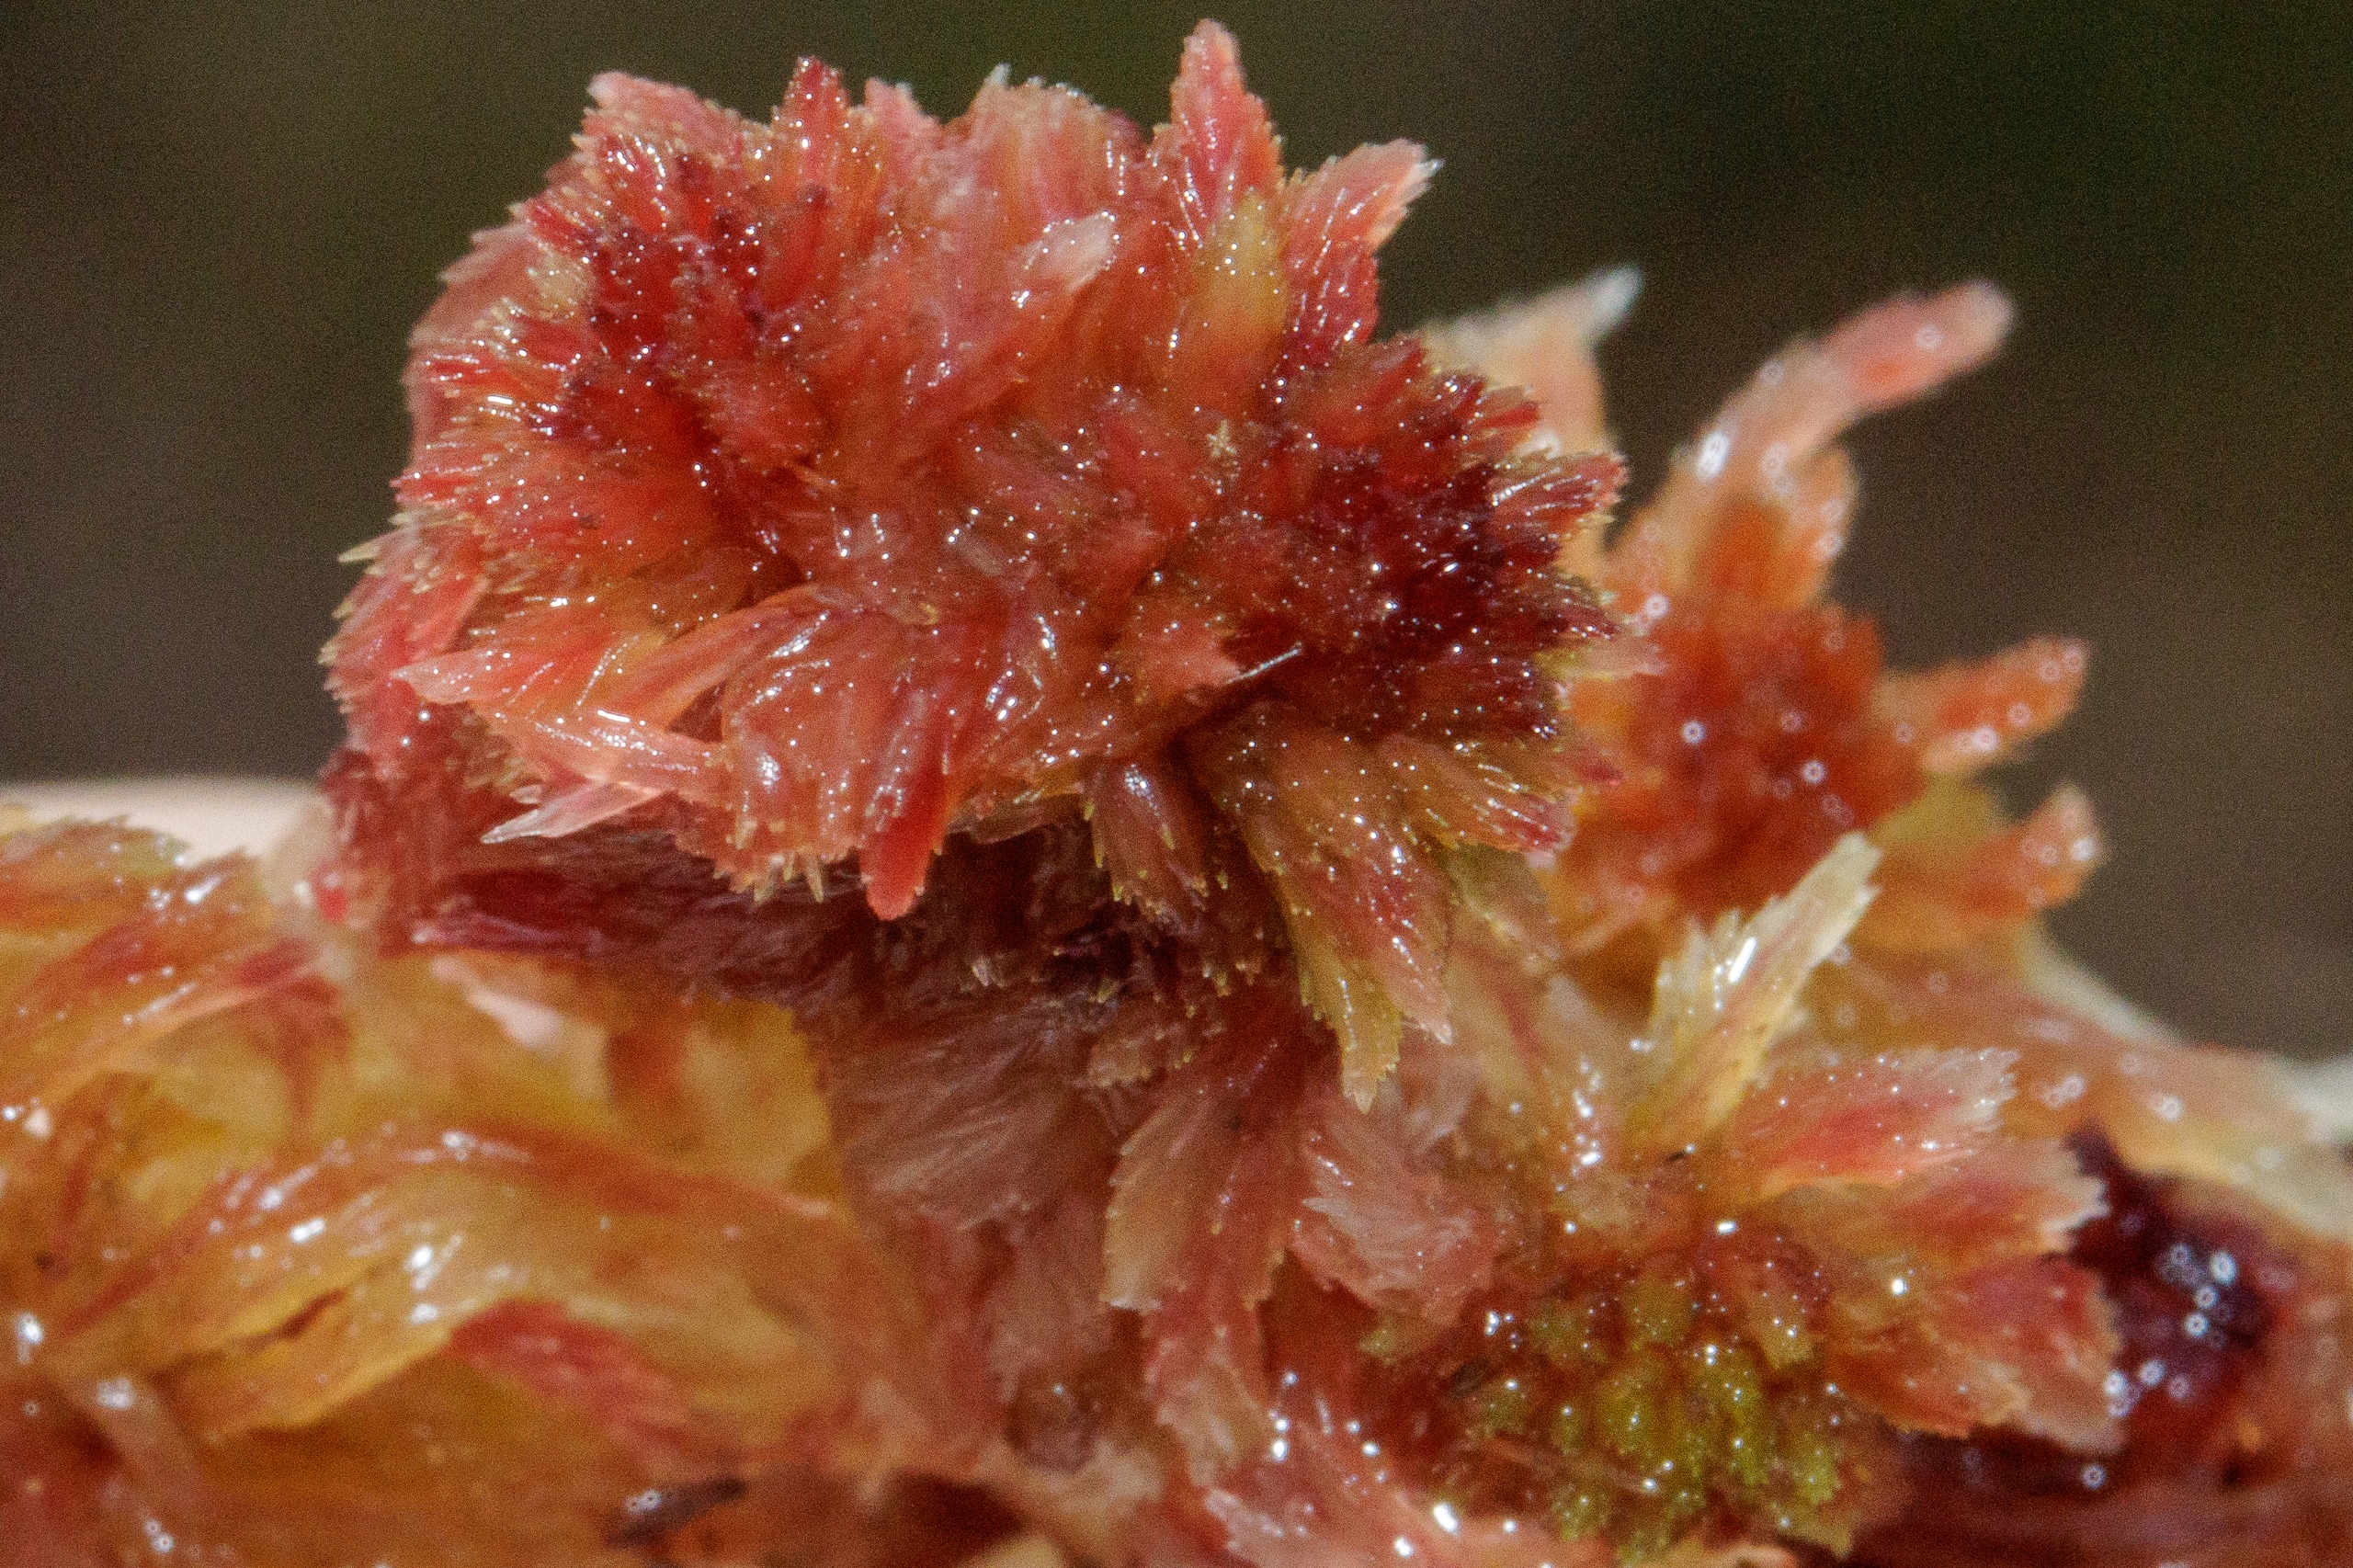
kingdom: Plantae
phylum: Bryophyta
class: Sphagnopsida
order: Sphagnales
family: Sphagnaceae
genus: Sphagnum
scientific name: Sphagnum
